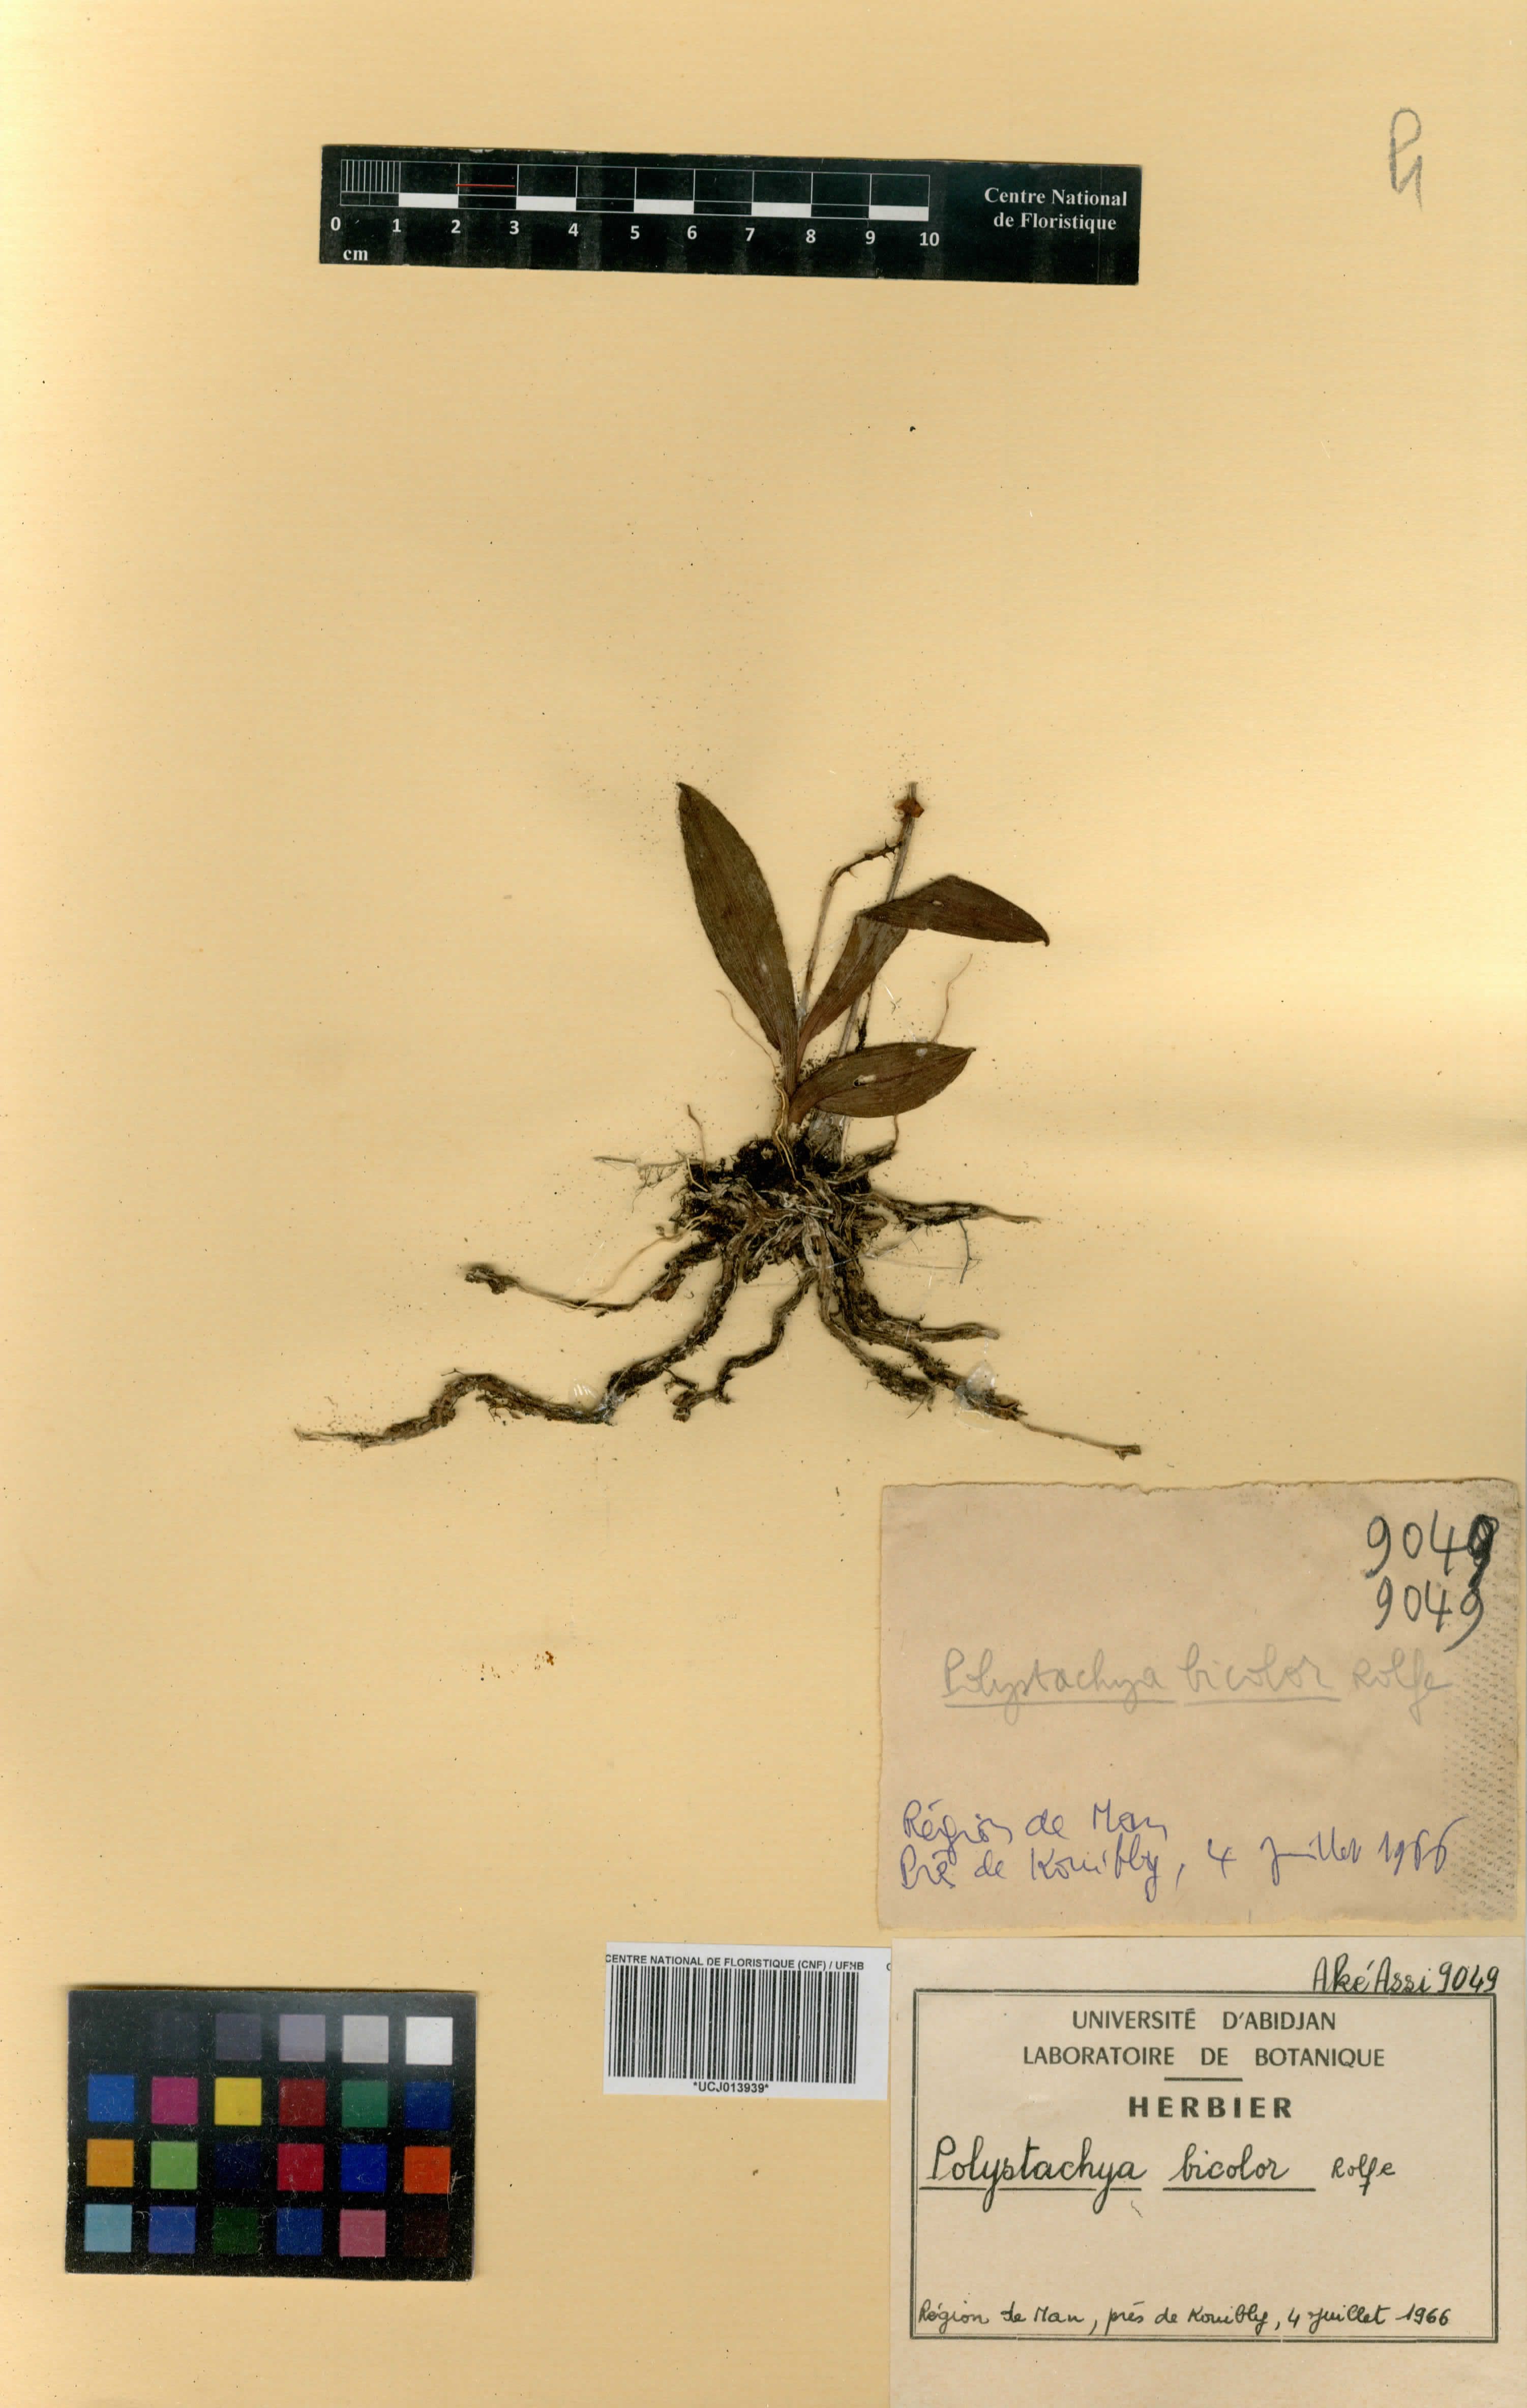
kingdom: Plantae
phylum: Tracheophyta
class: Liliopsida
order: Asparagales
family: Orchidaceae
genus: Polystachya
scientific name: Polystachya rosea
